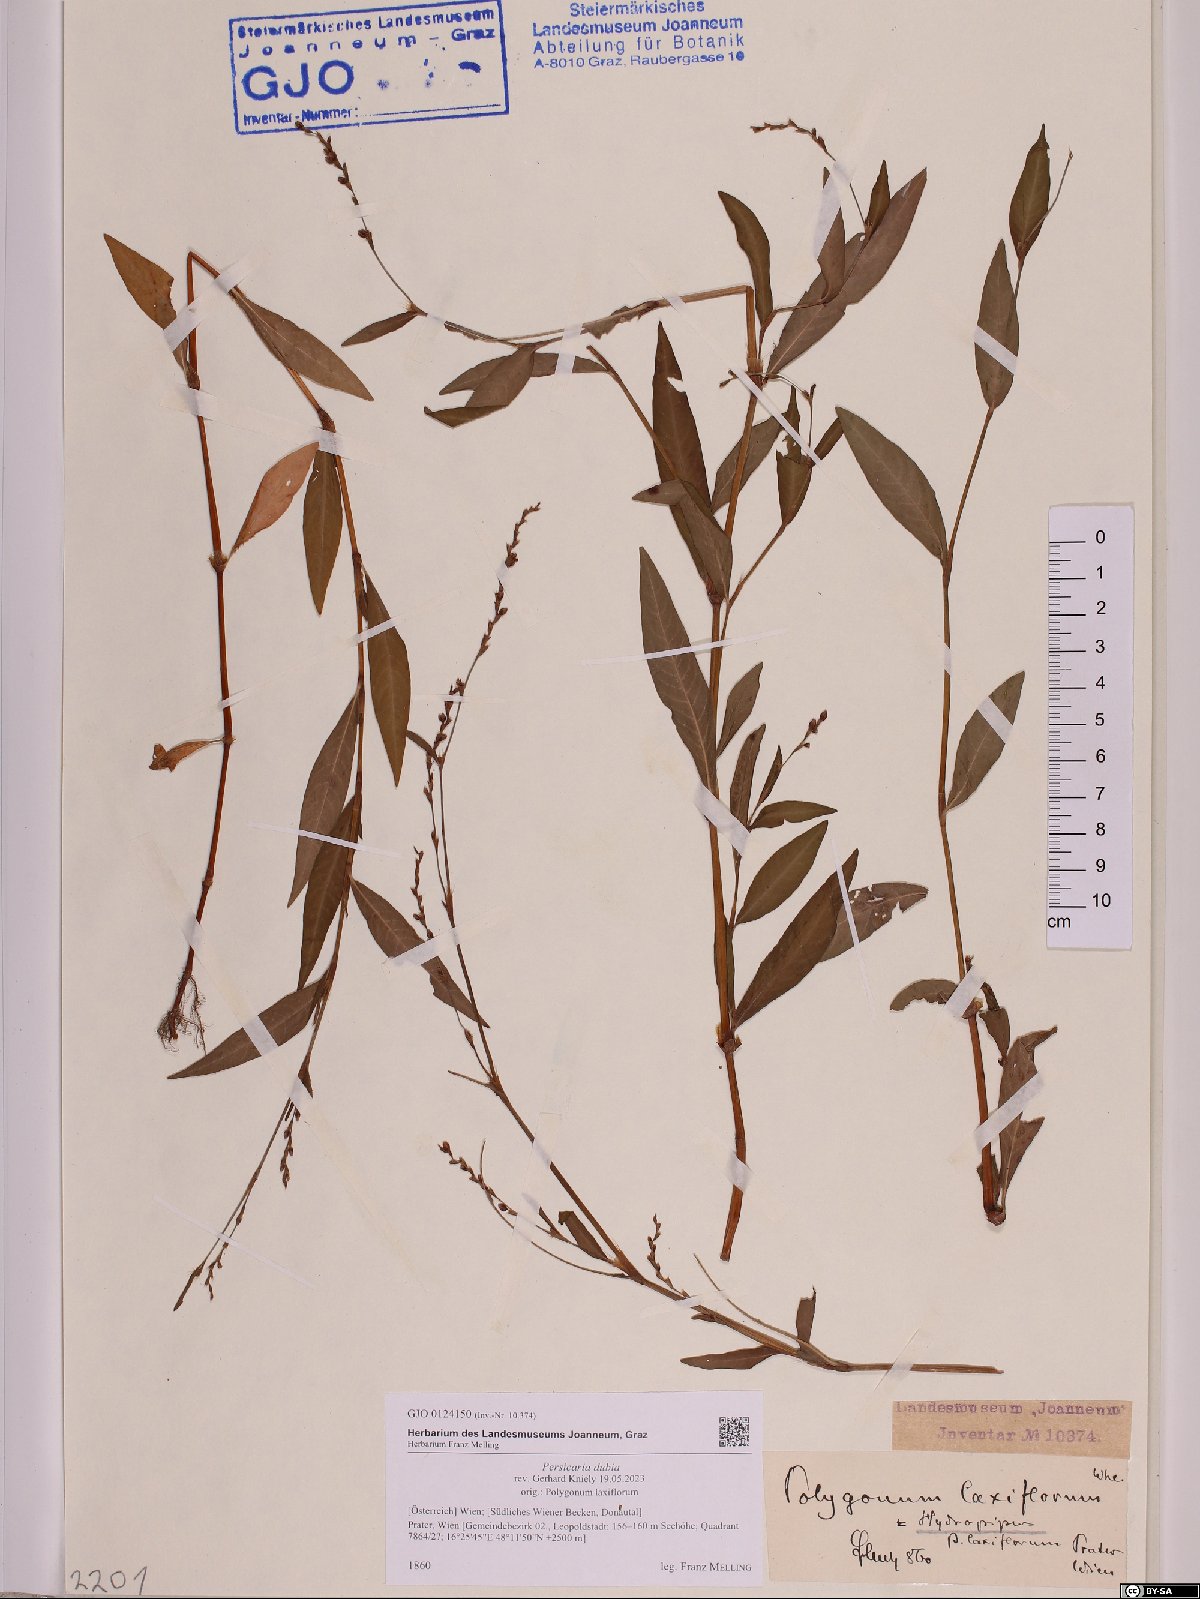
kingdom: Plantae
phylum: Tracheophyta
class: Magnoliopsida
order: Caryophyllales
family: Polygonaceae
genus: Persicaria
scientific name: Persicaria mitis
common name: Tasteless water-pepper
